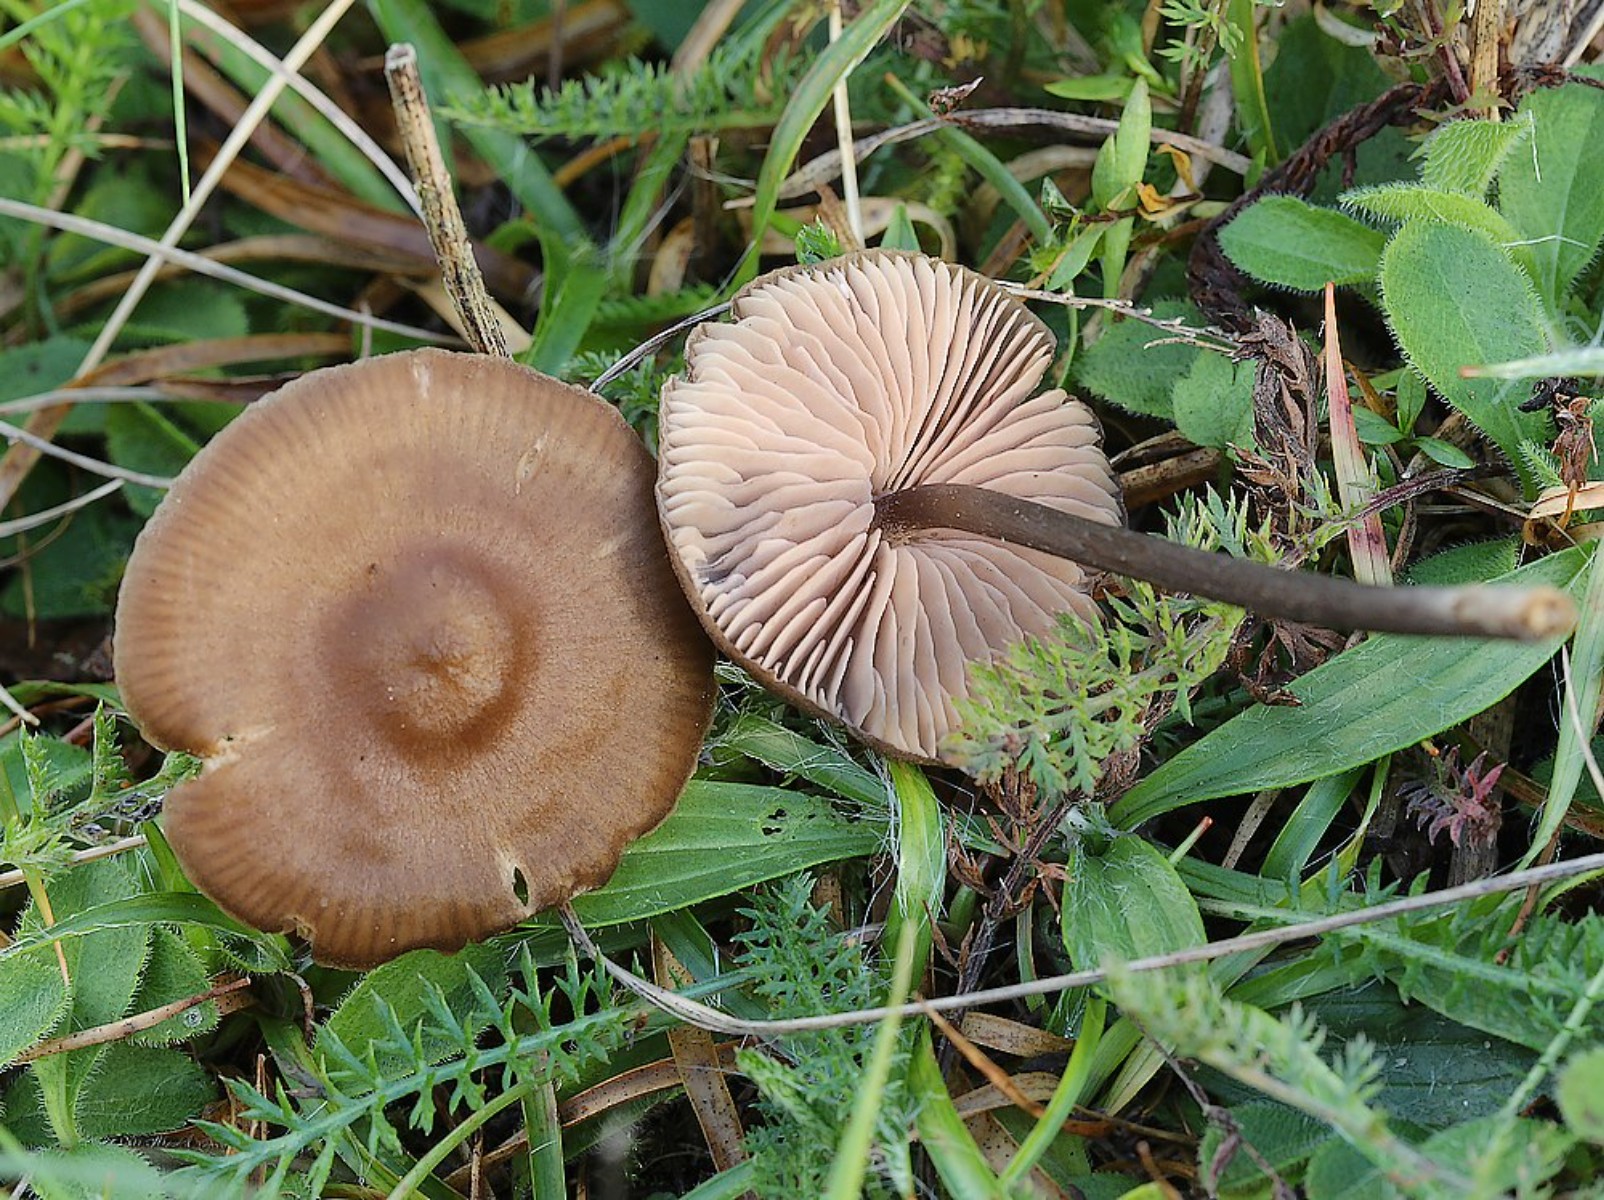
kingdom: Fungi
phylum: Basidiomycota
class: Agaricomycetes
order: Agaricales
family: Entolomataceae
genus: Entoloma
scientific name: Entoloma
